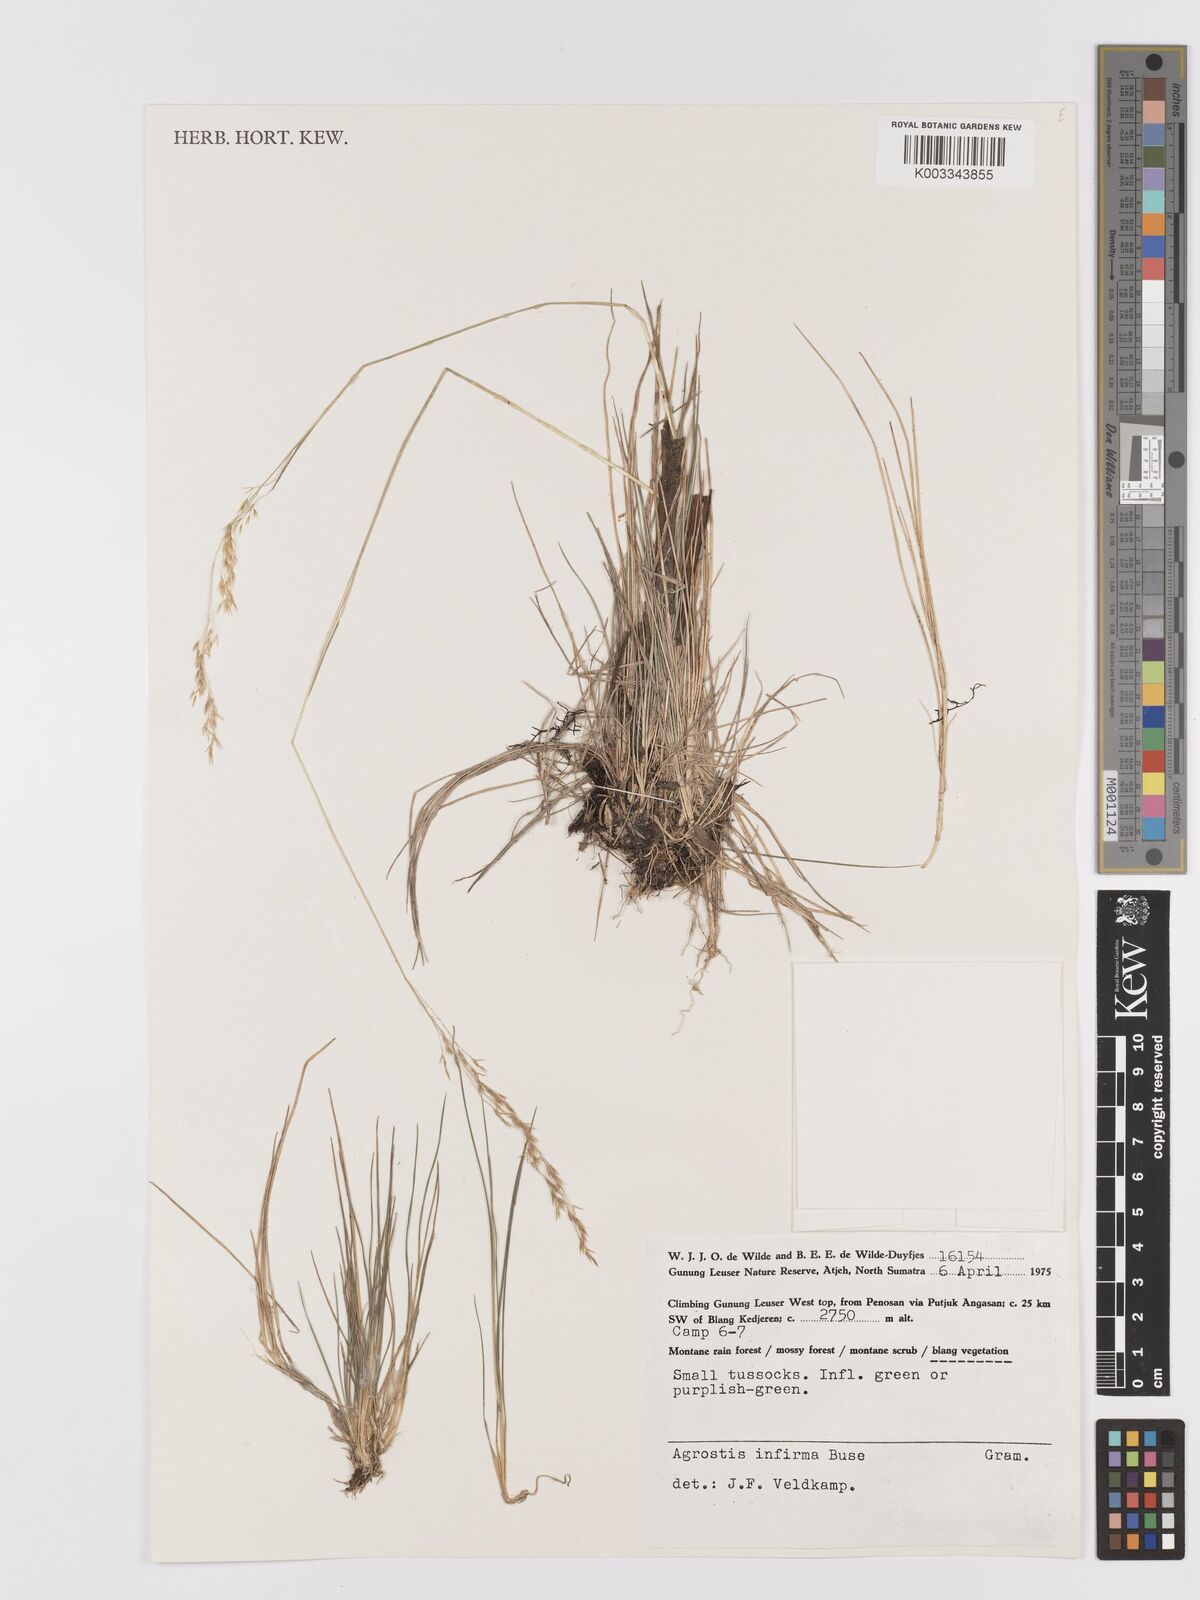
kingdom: Plantae
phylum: Tracheophyta
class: Liliopsida
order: Poales
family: Poaceae
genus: Agrostis
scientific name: Agrostis infirma
